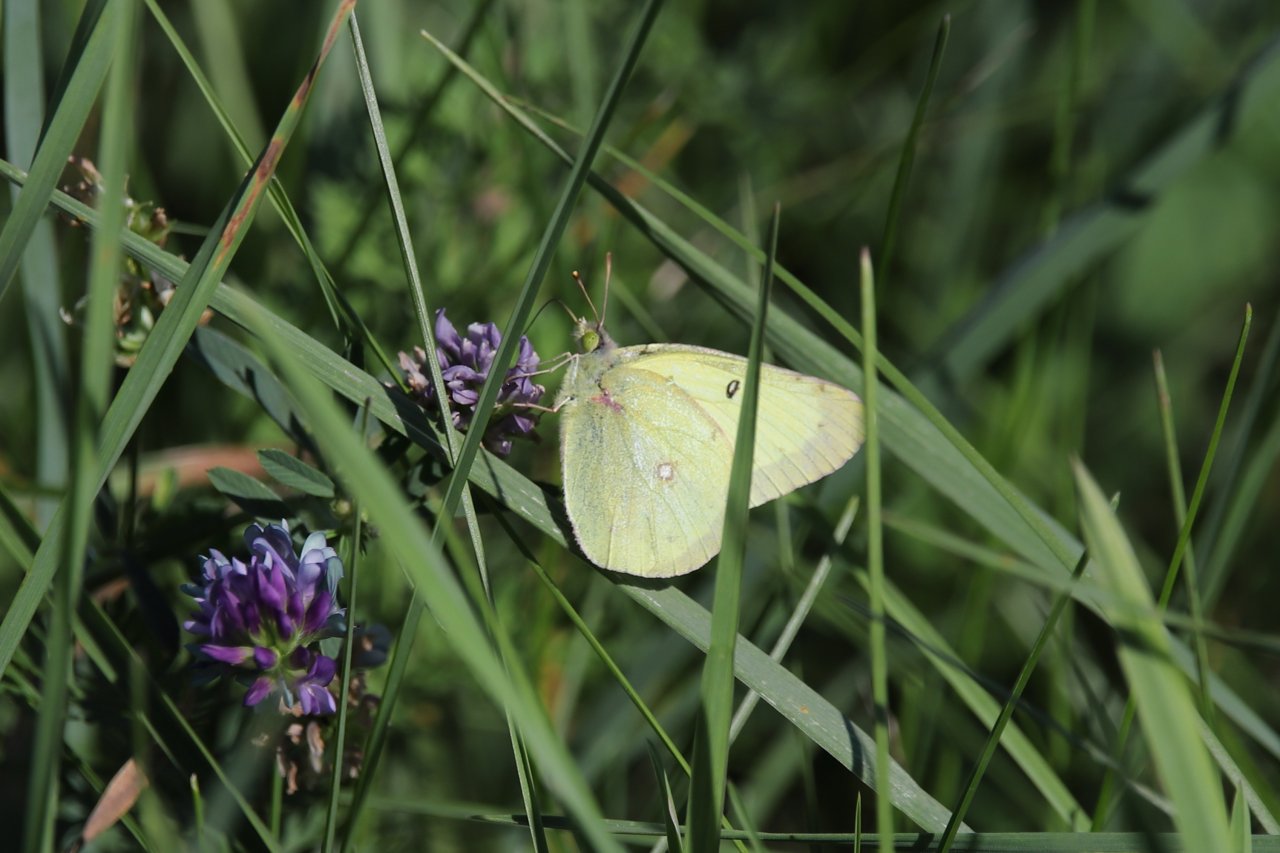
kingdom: Animalia
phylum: Arthropoda
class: Insecta
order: Lepidoptera
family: Pieridae
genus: Colias
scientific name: Colias philodice
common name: Clouded Sulphur
